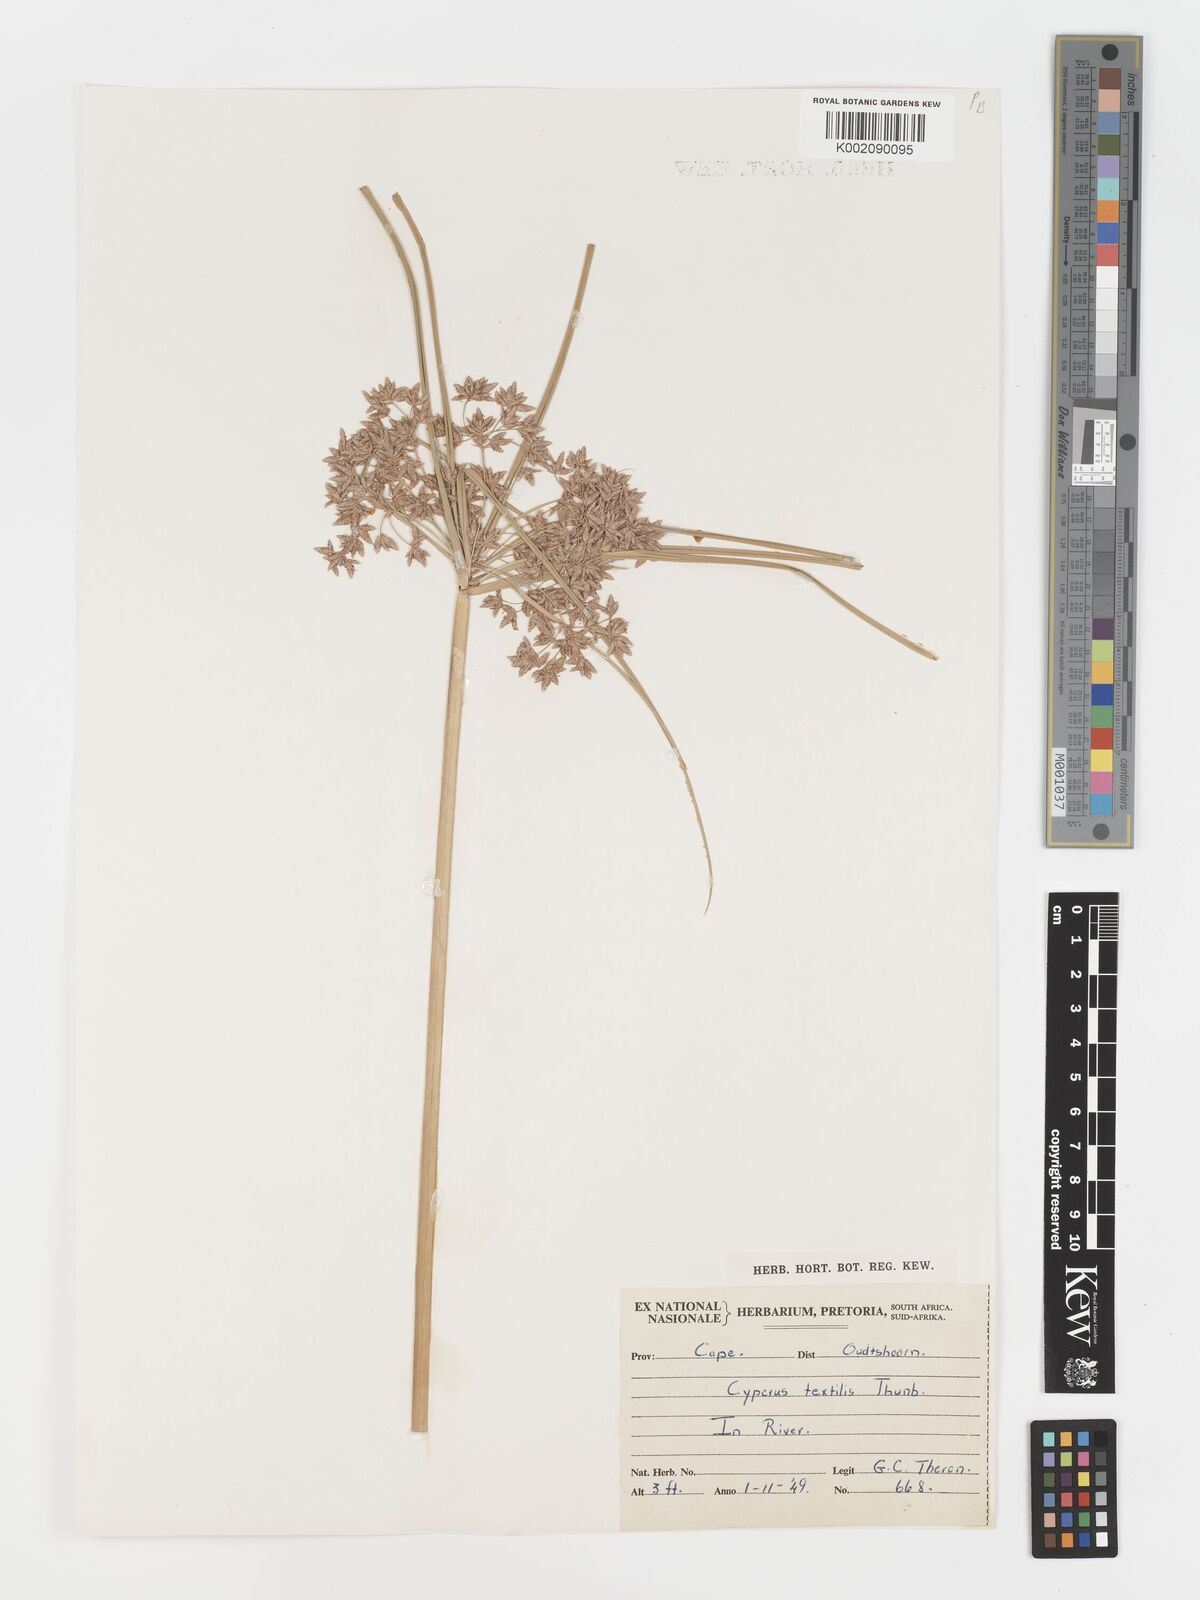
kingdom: Plantae
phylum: Tracheophyta
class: Liliopsida
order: Poales
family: Cyperaceae
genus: Cyperus
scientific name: Cyperus alternifolius
